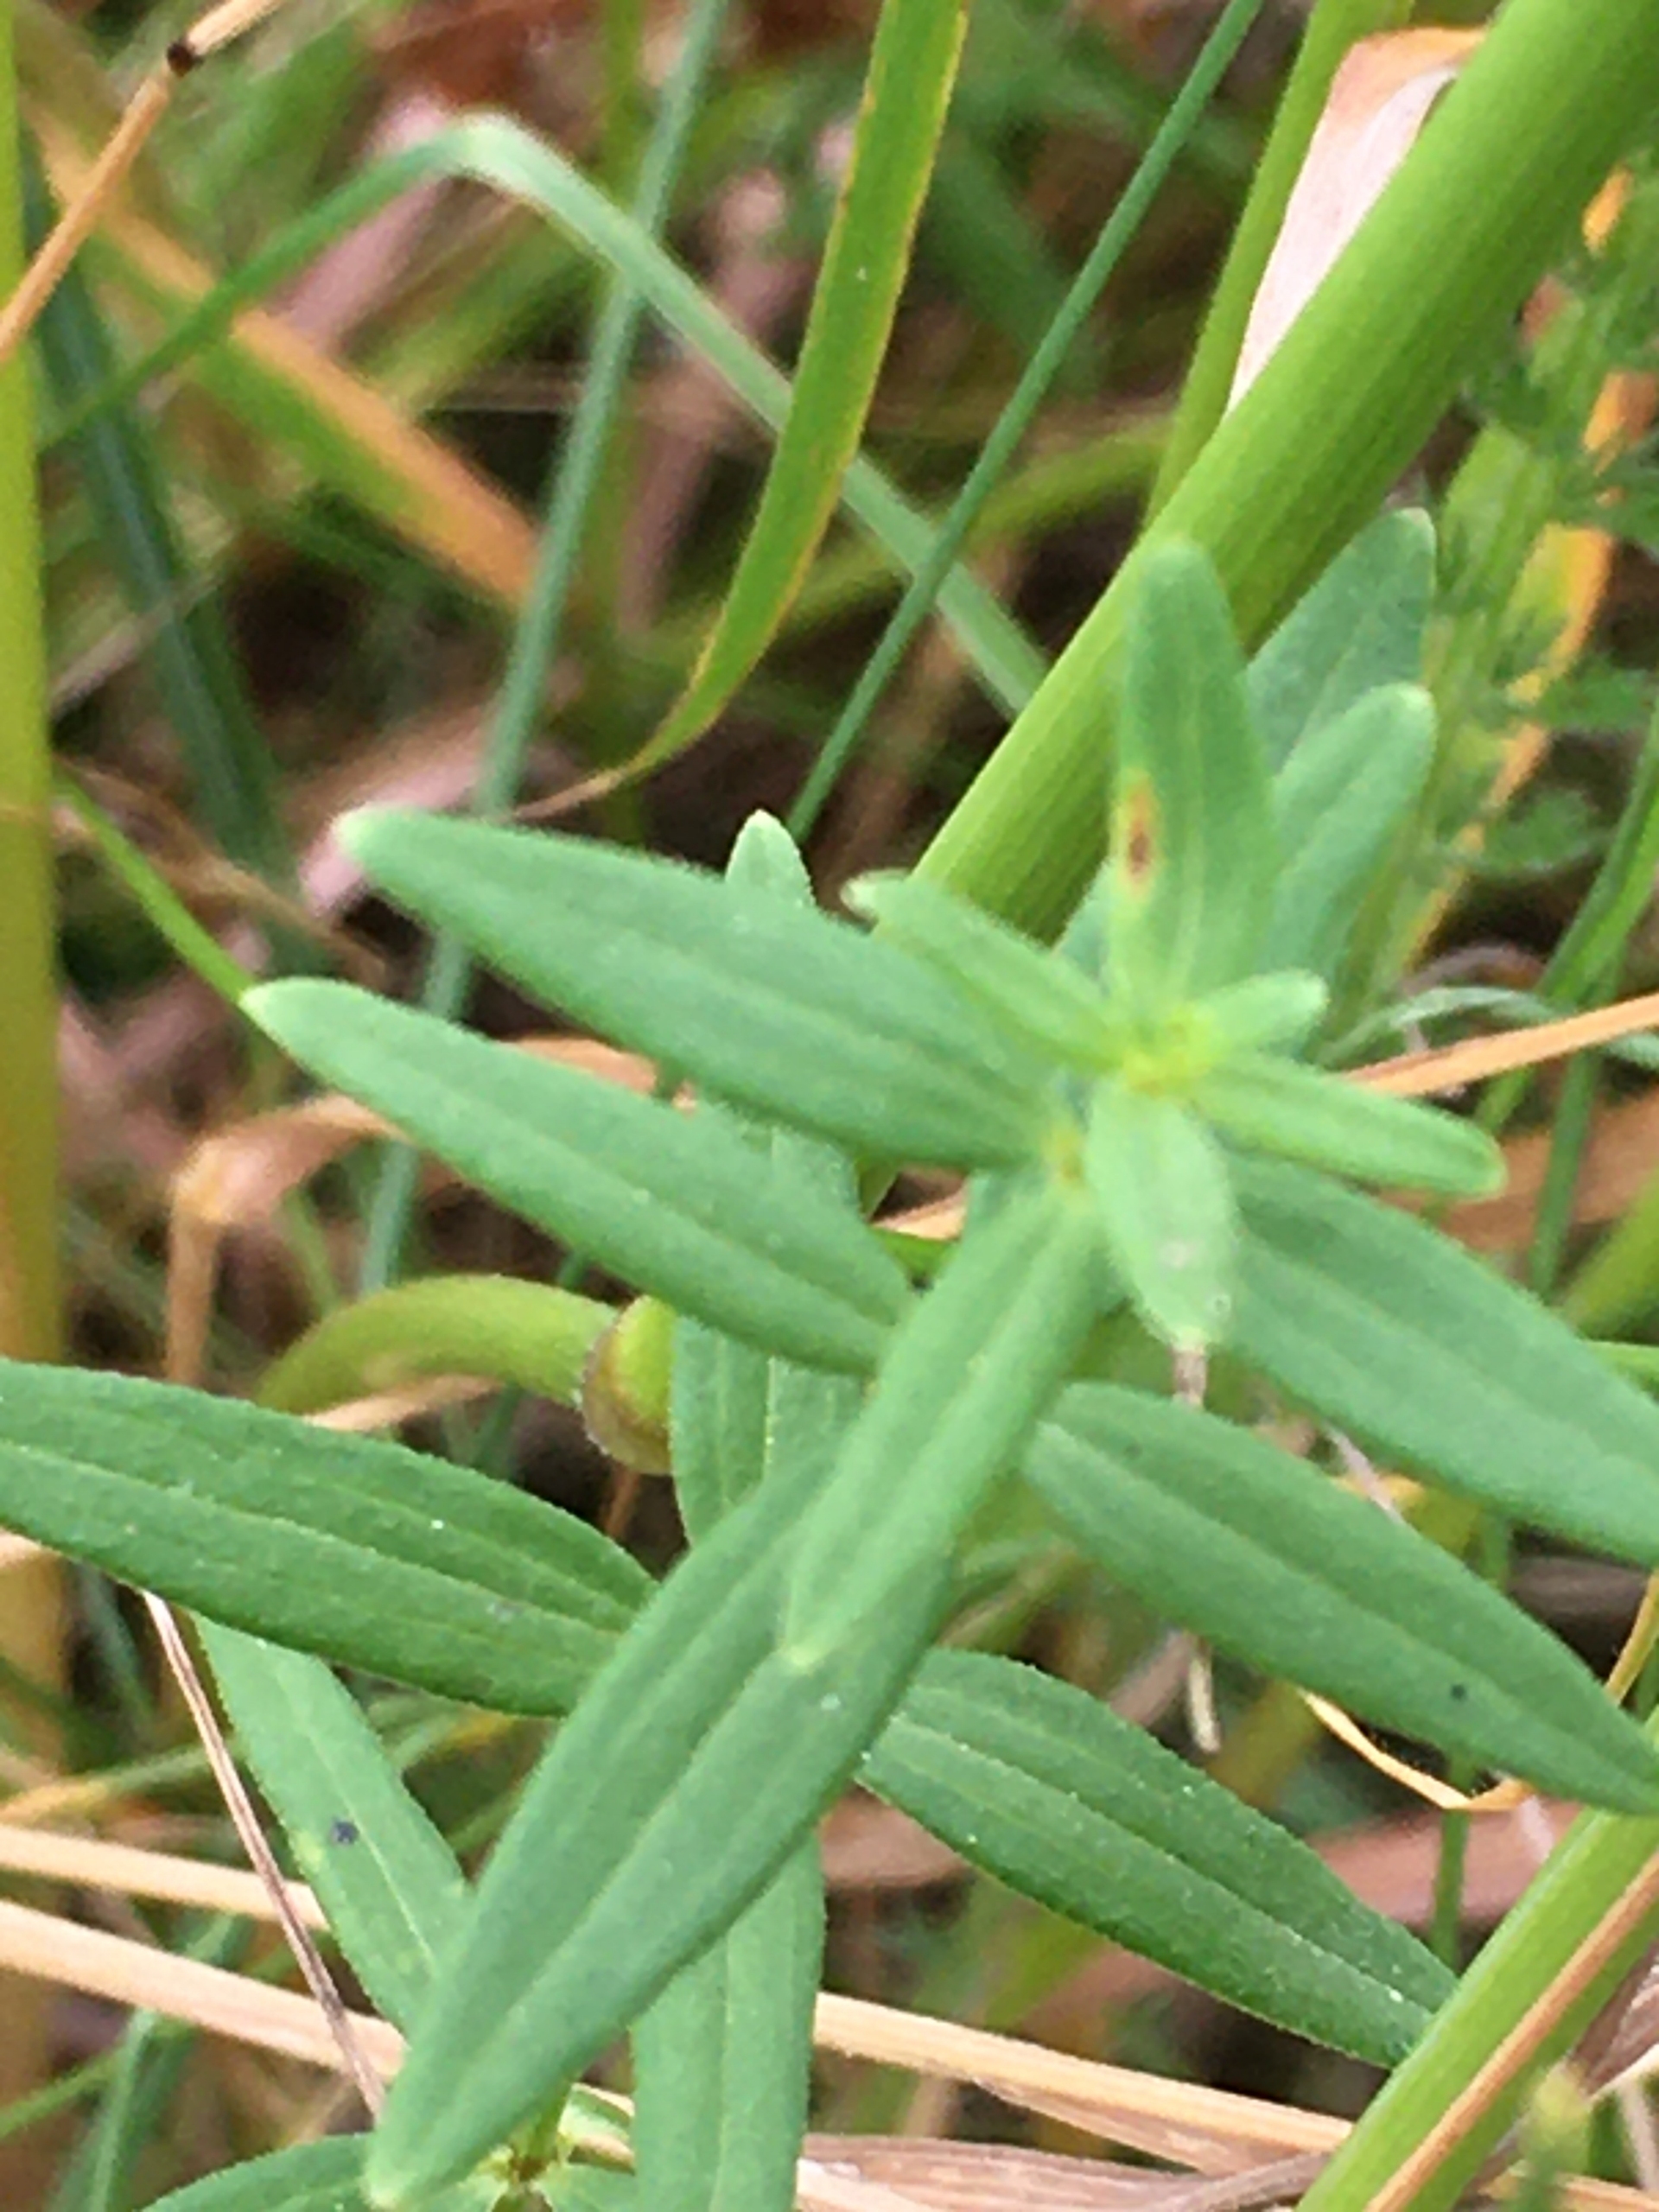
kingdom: Plantae
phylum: Tracheophyta
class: Magnoliopsida
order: Gentianales
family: Rubiaceae
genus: Galium
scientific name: Galium boreale
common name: Trenervet snerre
